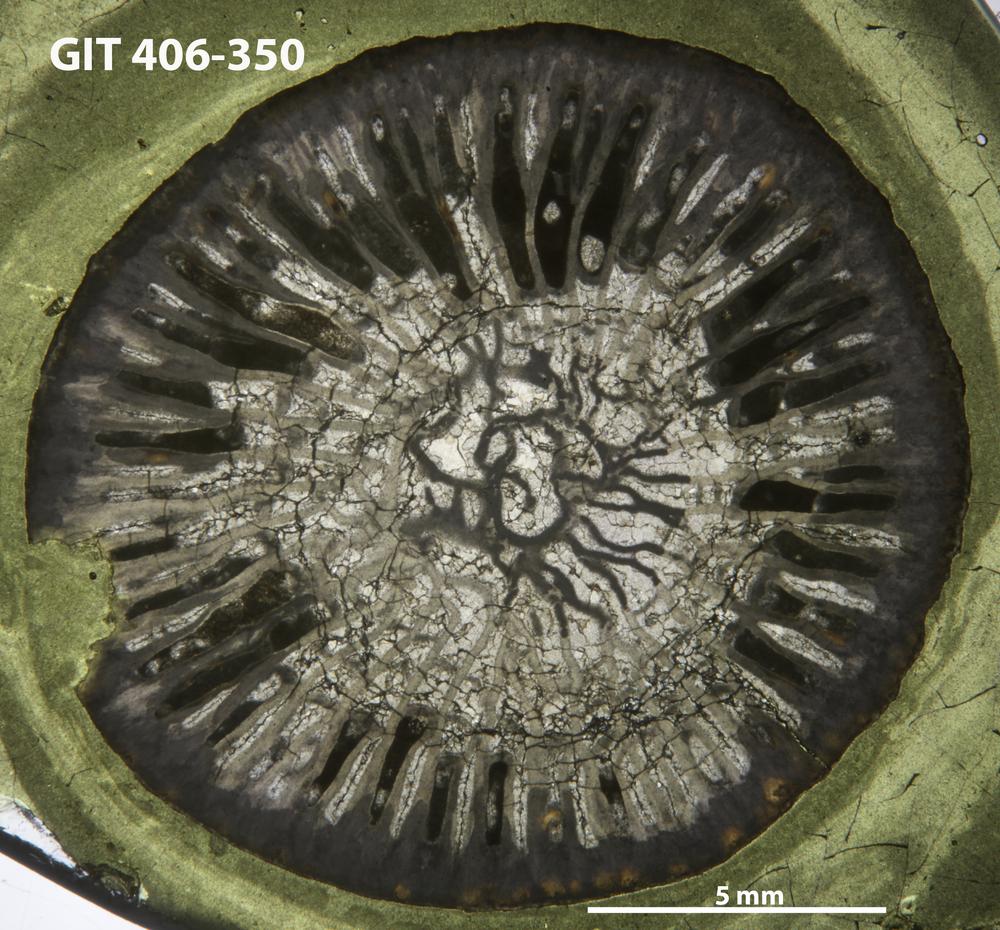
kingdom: Animalia
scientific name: Animalia
